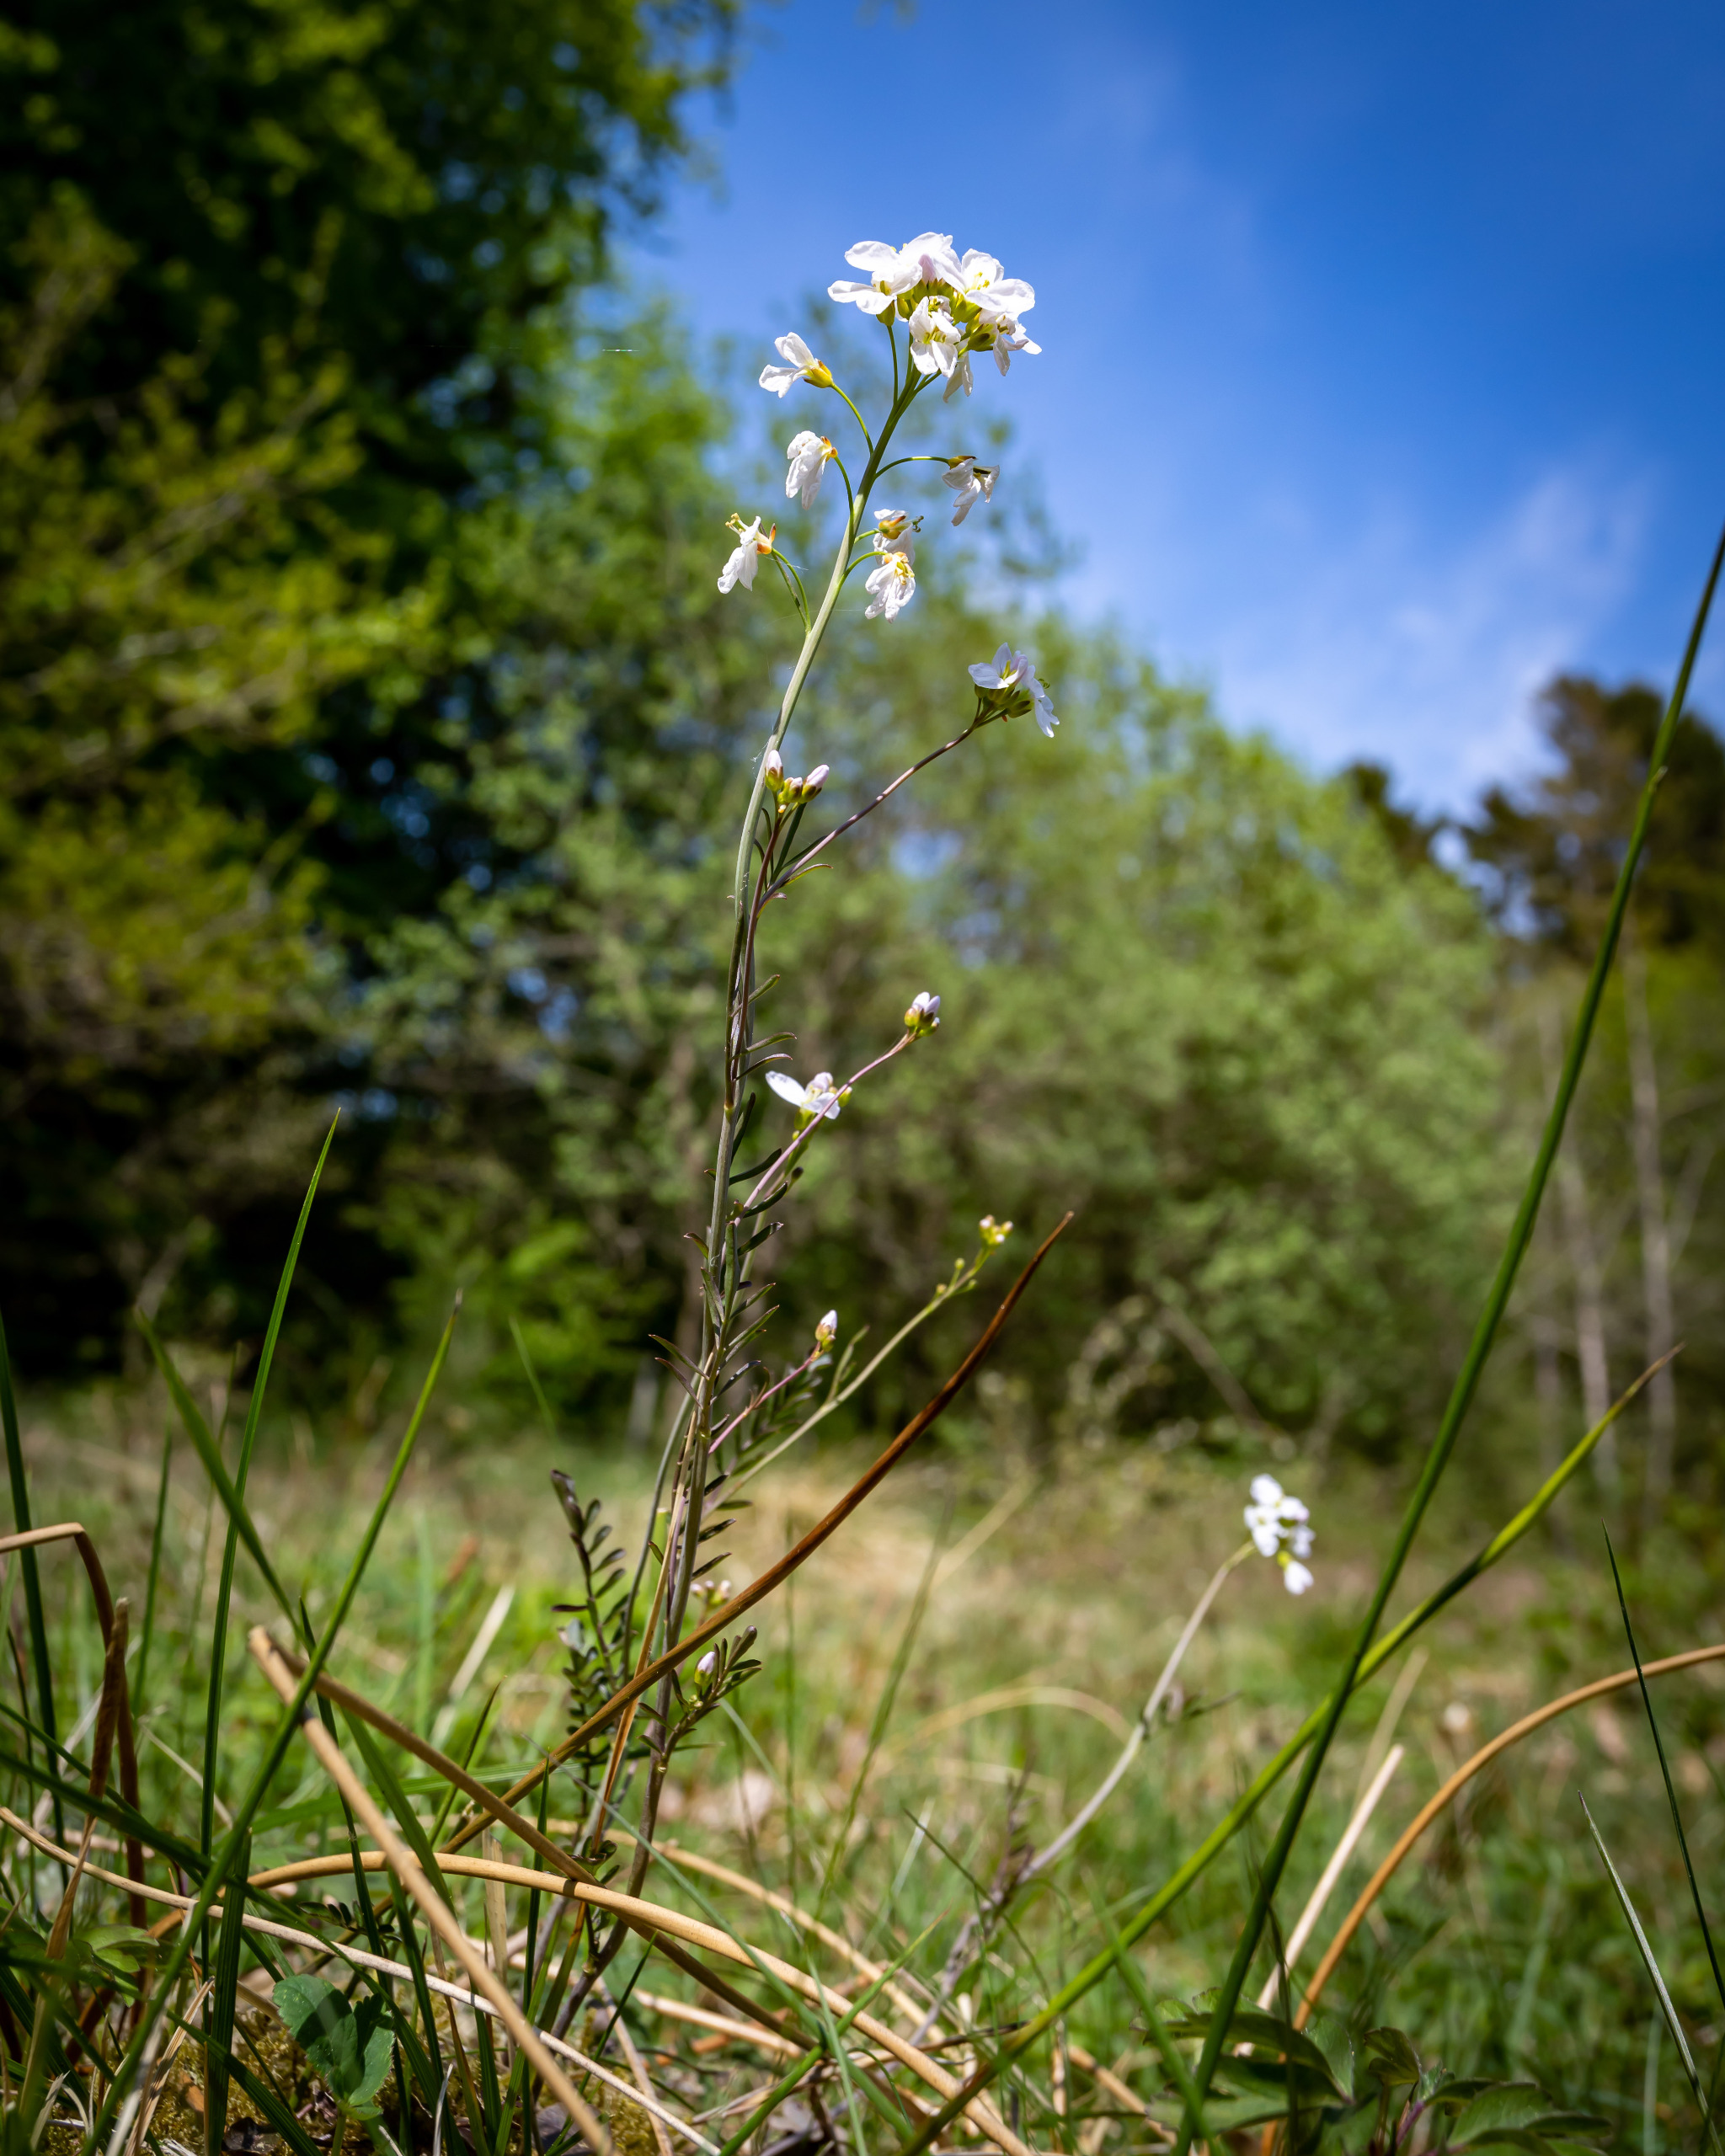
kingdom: Plantae
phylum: Tracheophyta
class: Magnoliopsida
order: Brassicales
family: Brassicaceae
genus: Cardamine
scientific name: Cardamine pratensis
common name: Engkarse
